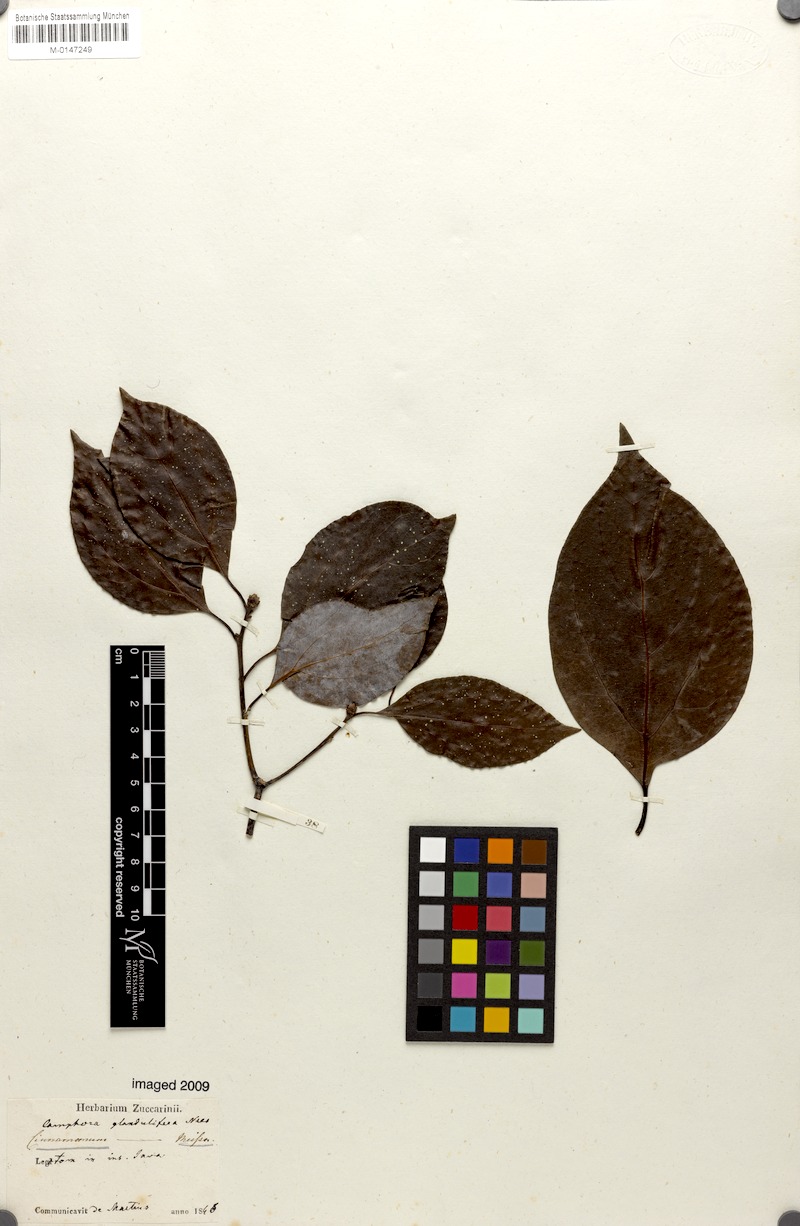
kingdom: Plantae
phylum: Tracheophyta
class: Magnoliopsida
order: Laurales
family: Lauraceae
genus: Cinnamomum
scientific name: Cinnamomum glanduliferum
